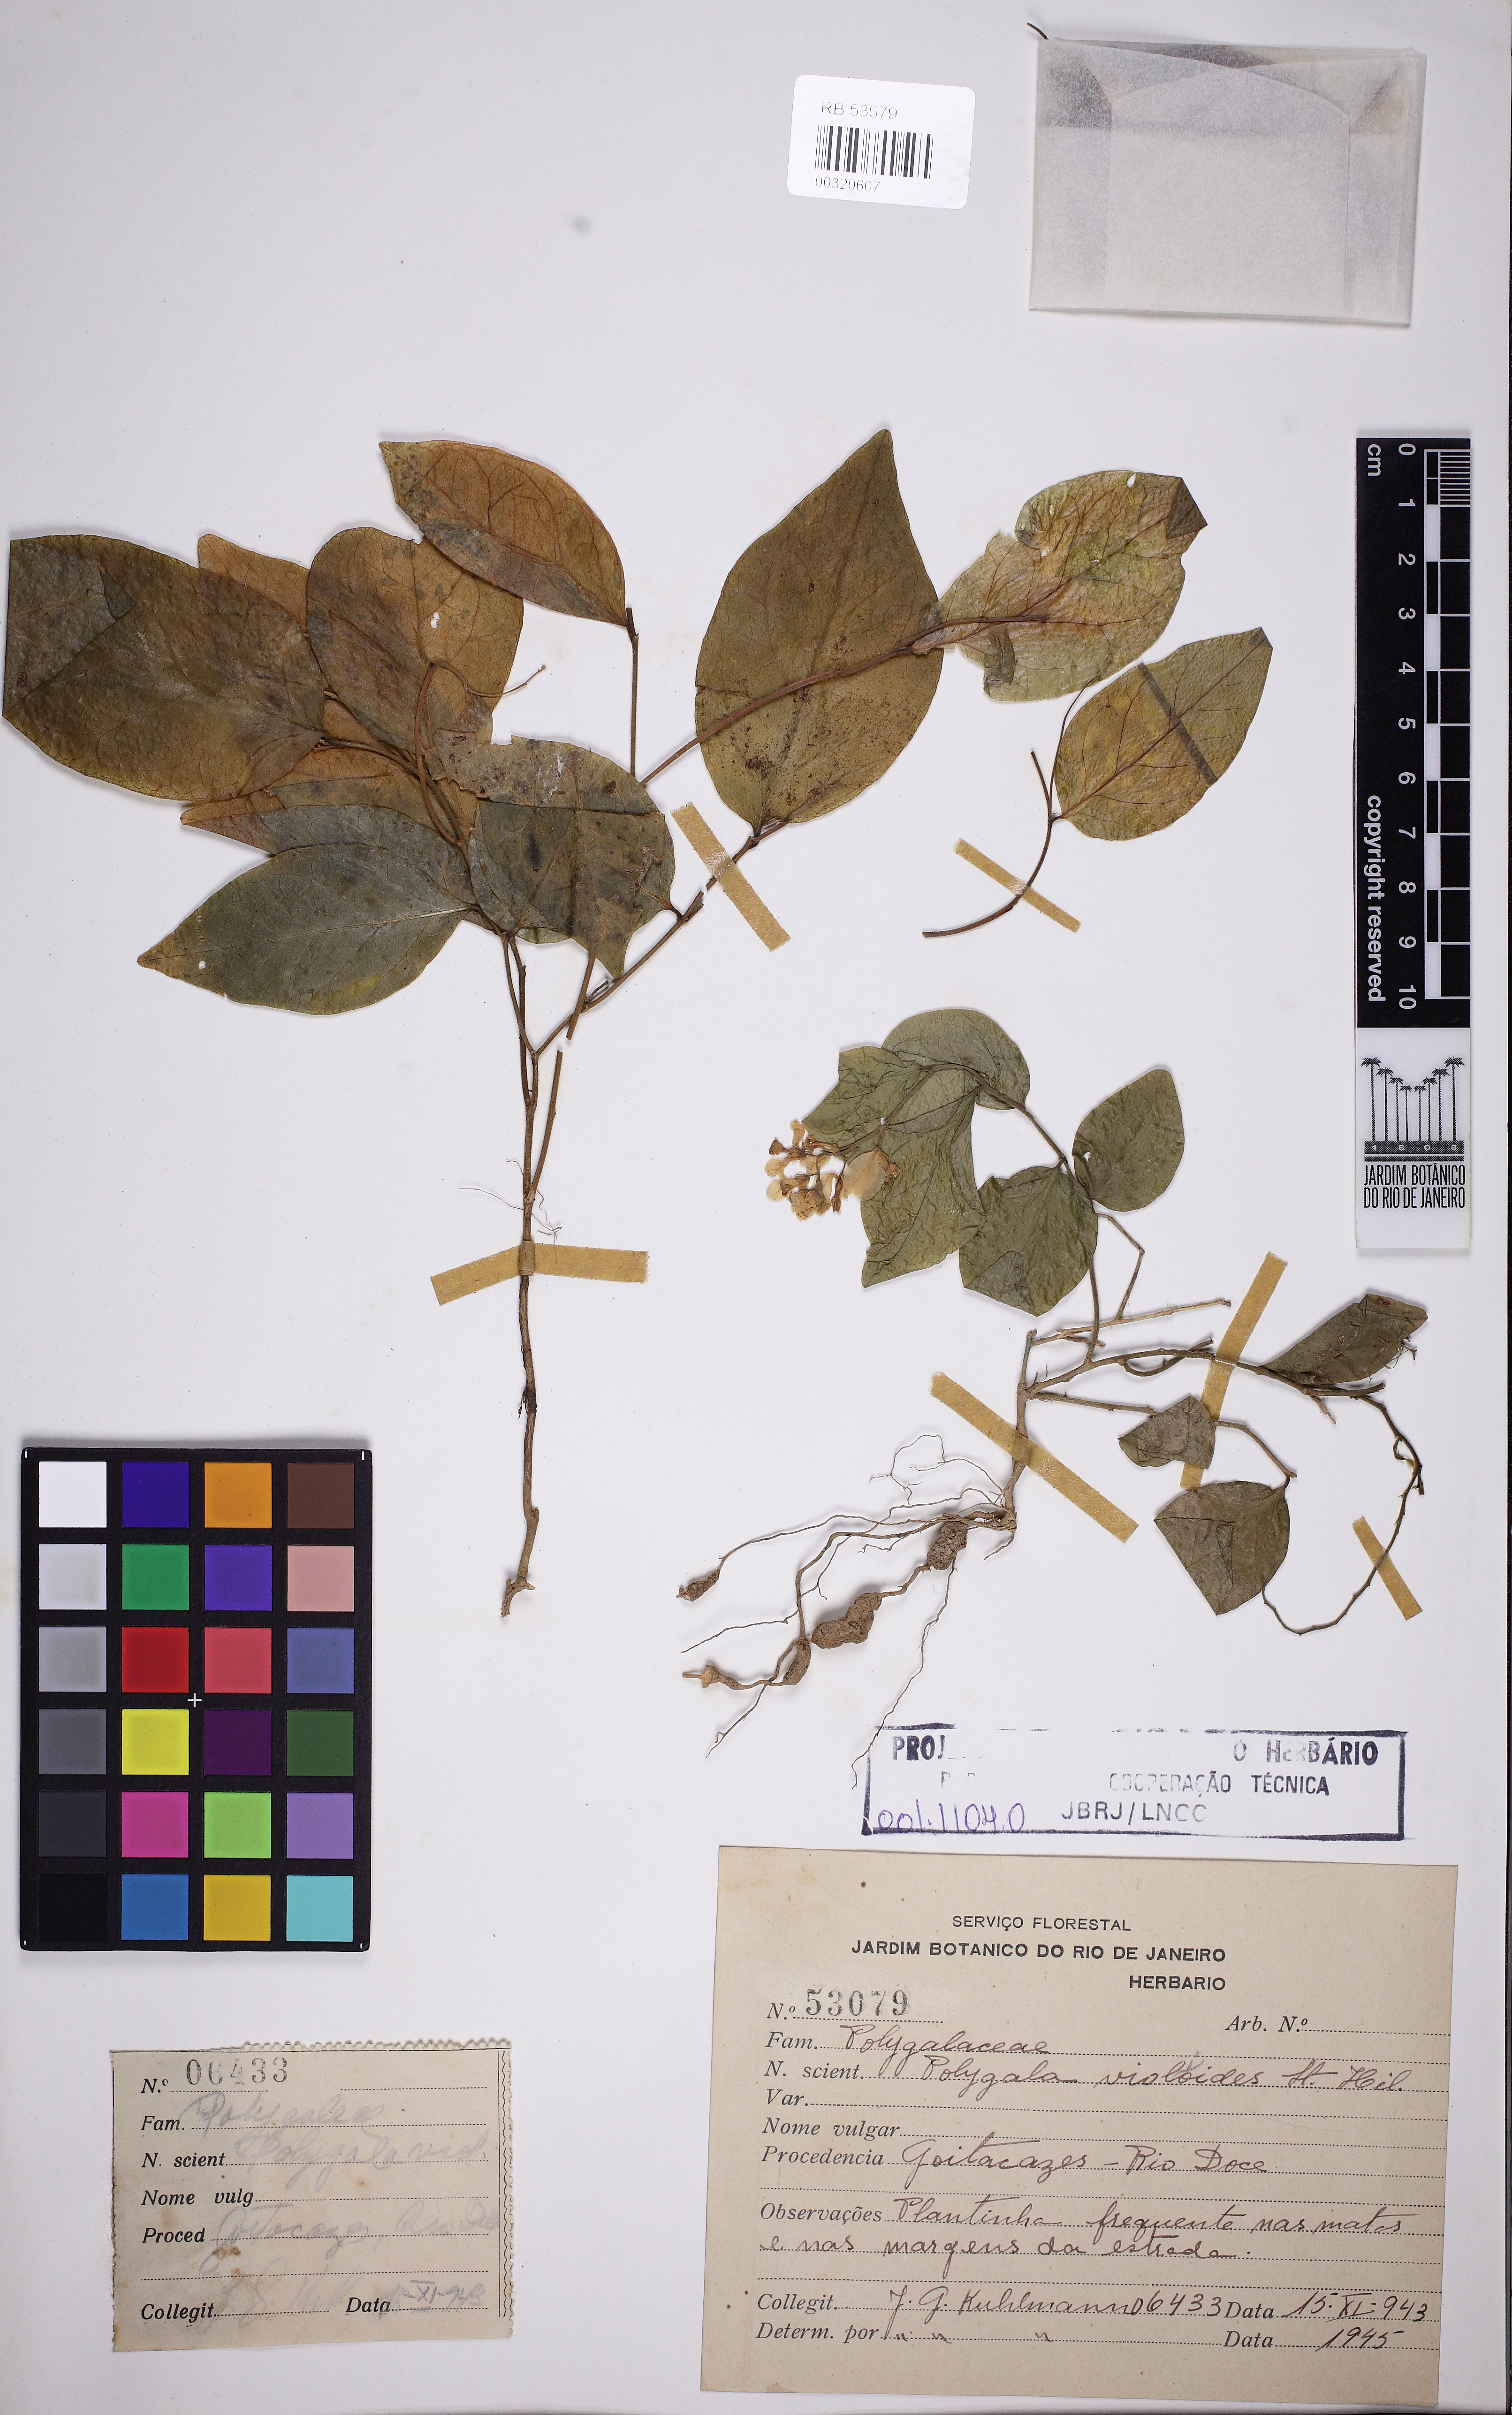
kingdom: Plantae
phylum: Tracheophyta
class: Magnoliopsida
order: Fabales
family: Polygalaceae
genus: Gymnospora
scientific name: Gymnospora violoides
